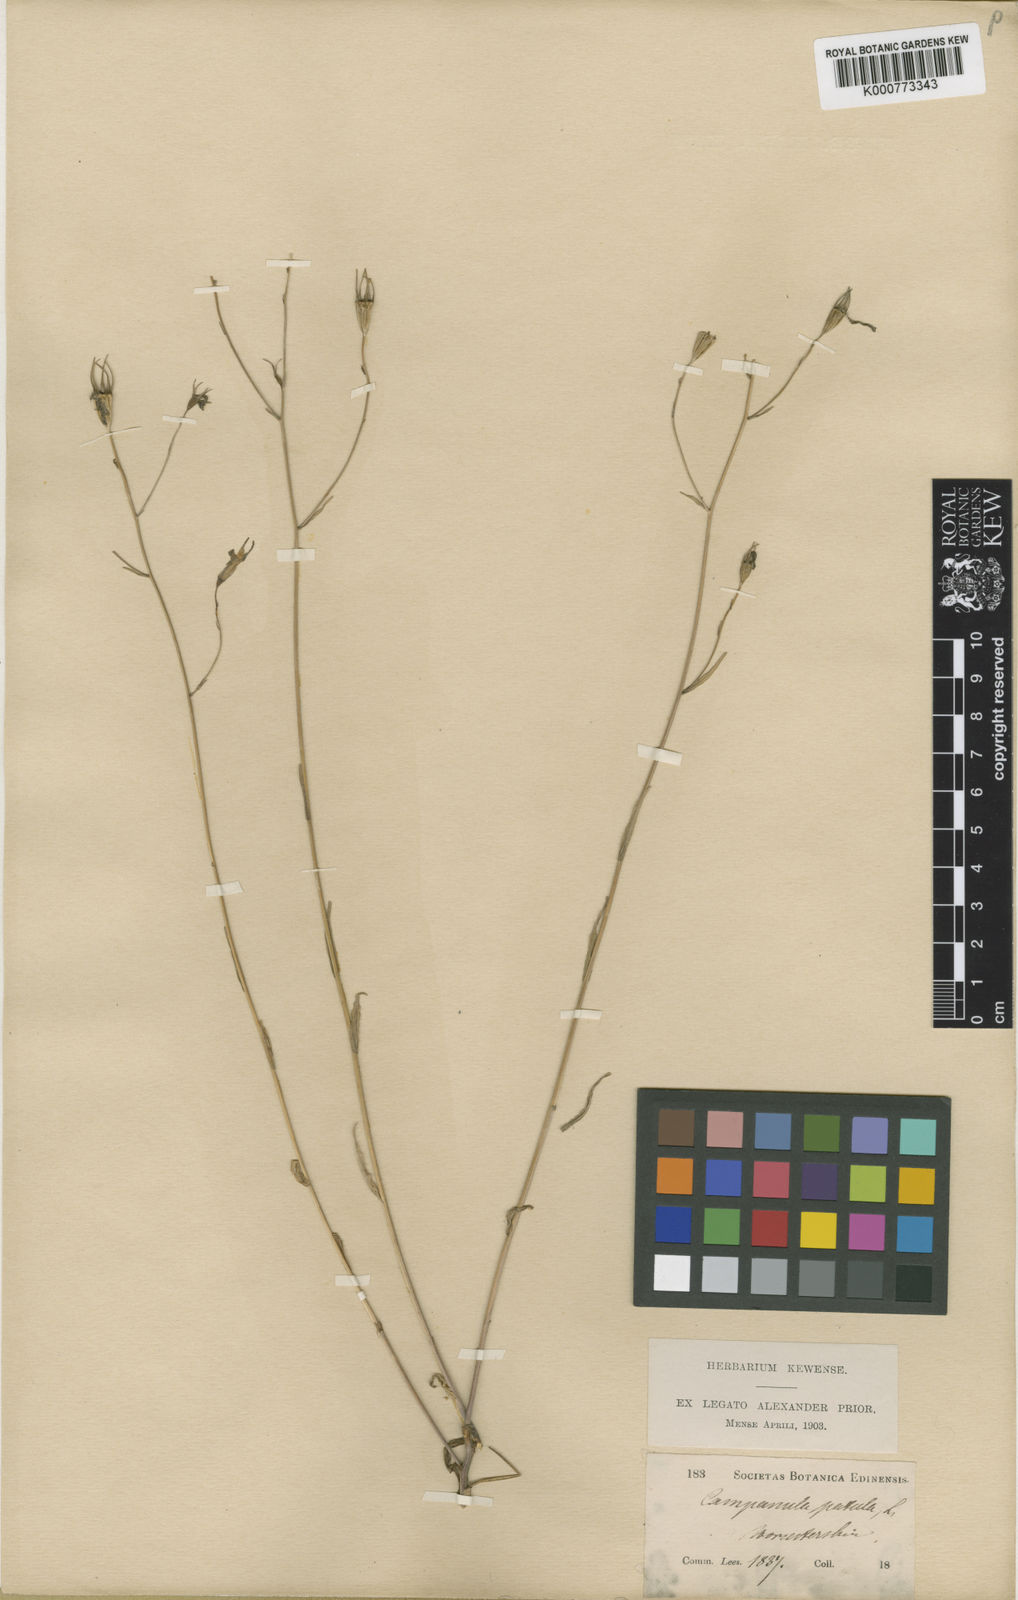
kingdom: Plantae
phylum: Tracheophyta
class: Magnoliopsida
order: Asterales
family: Campanulaceae
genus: Campanula
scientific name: Campanula patula
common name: Spreading bellflower
